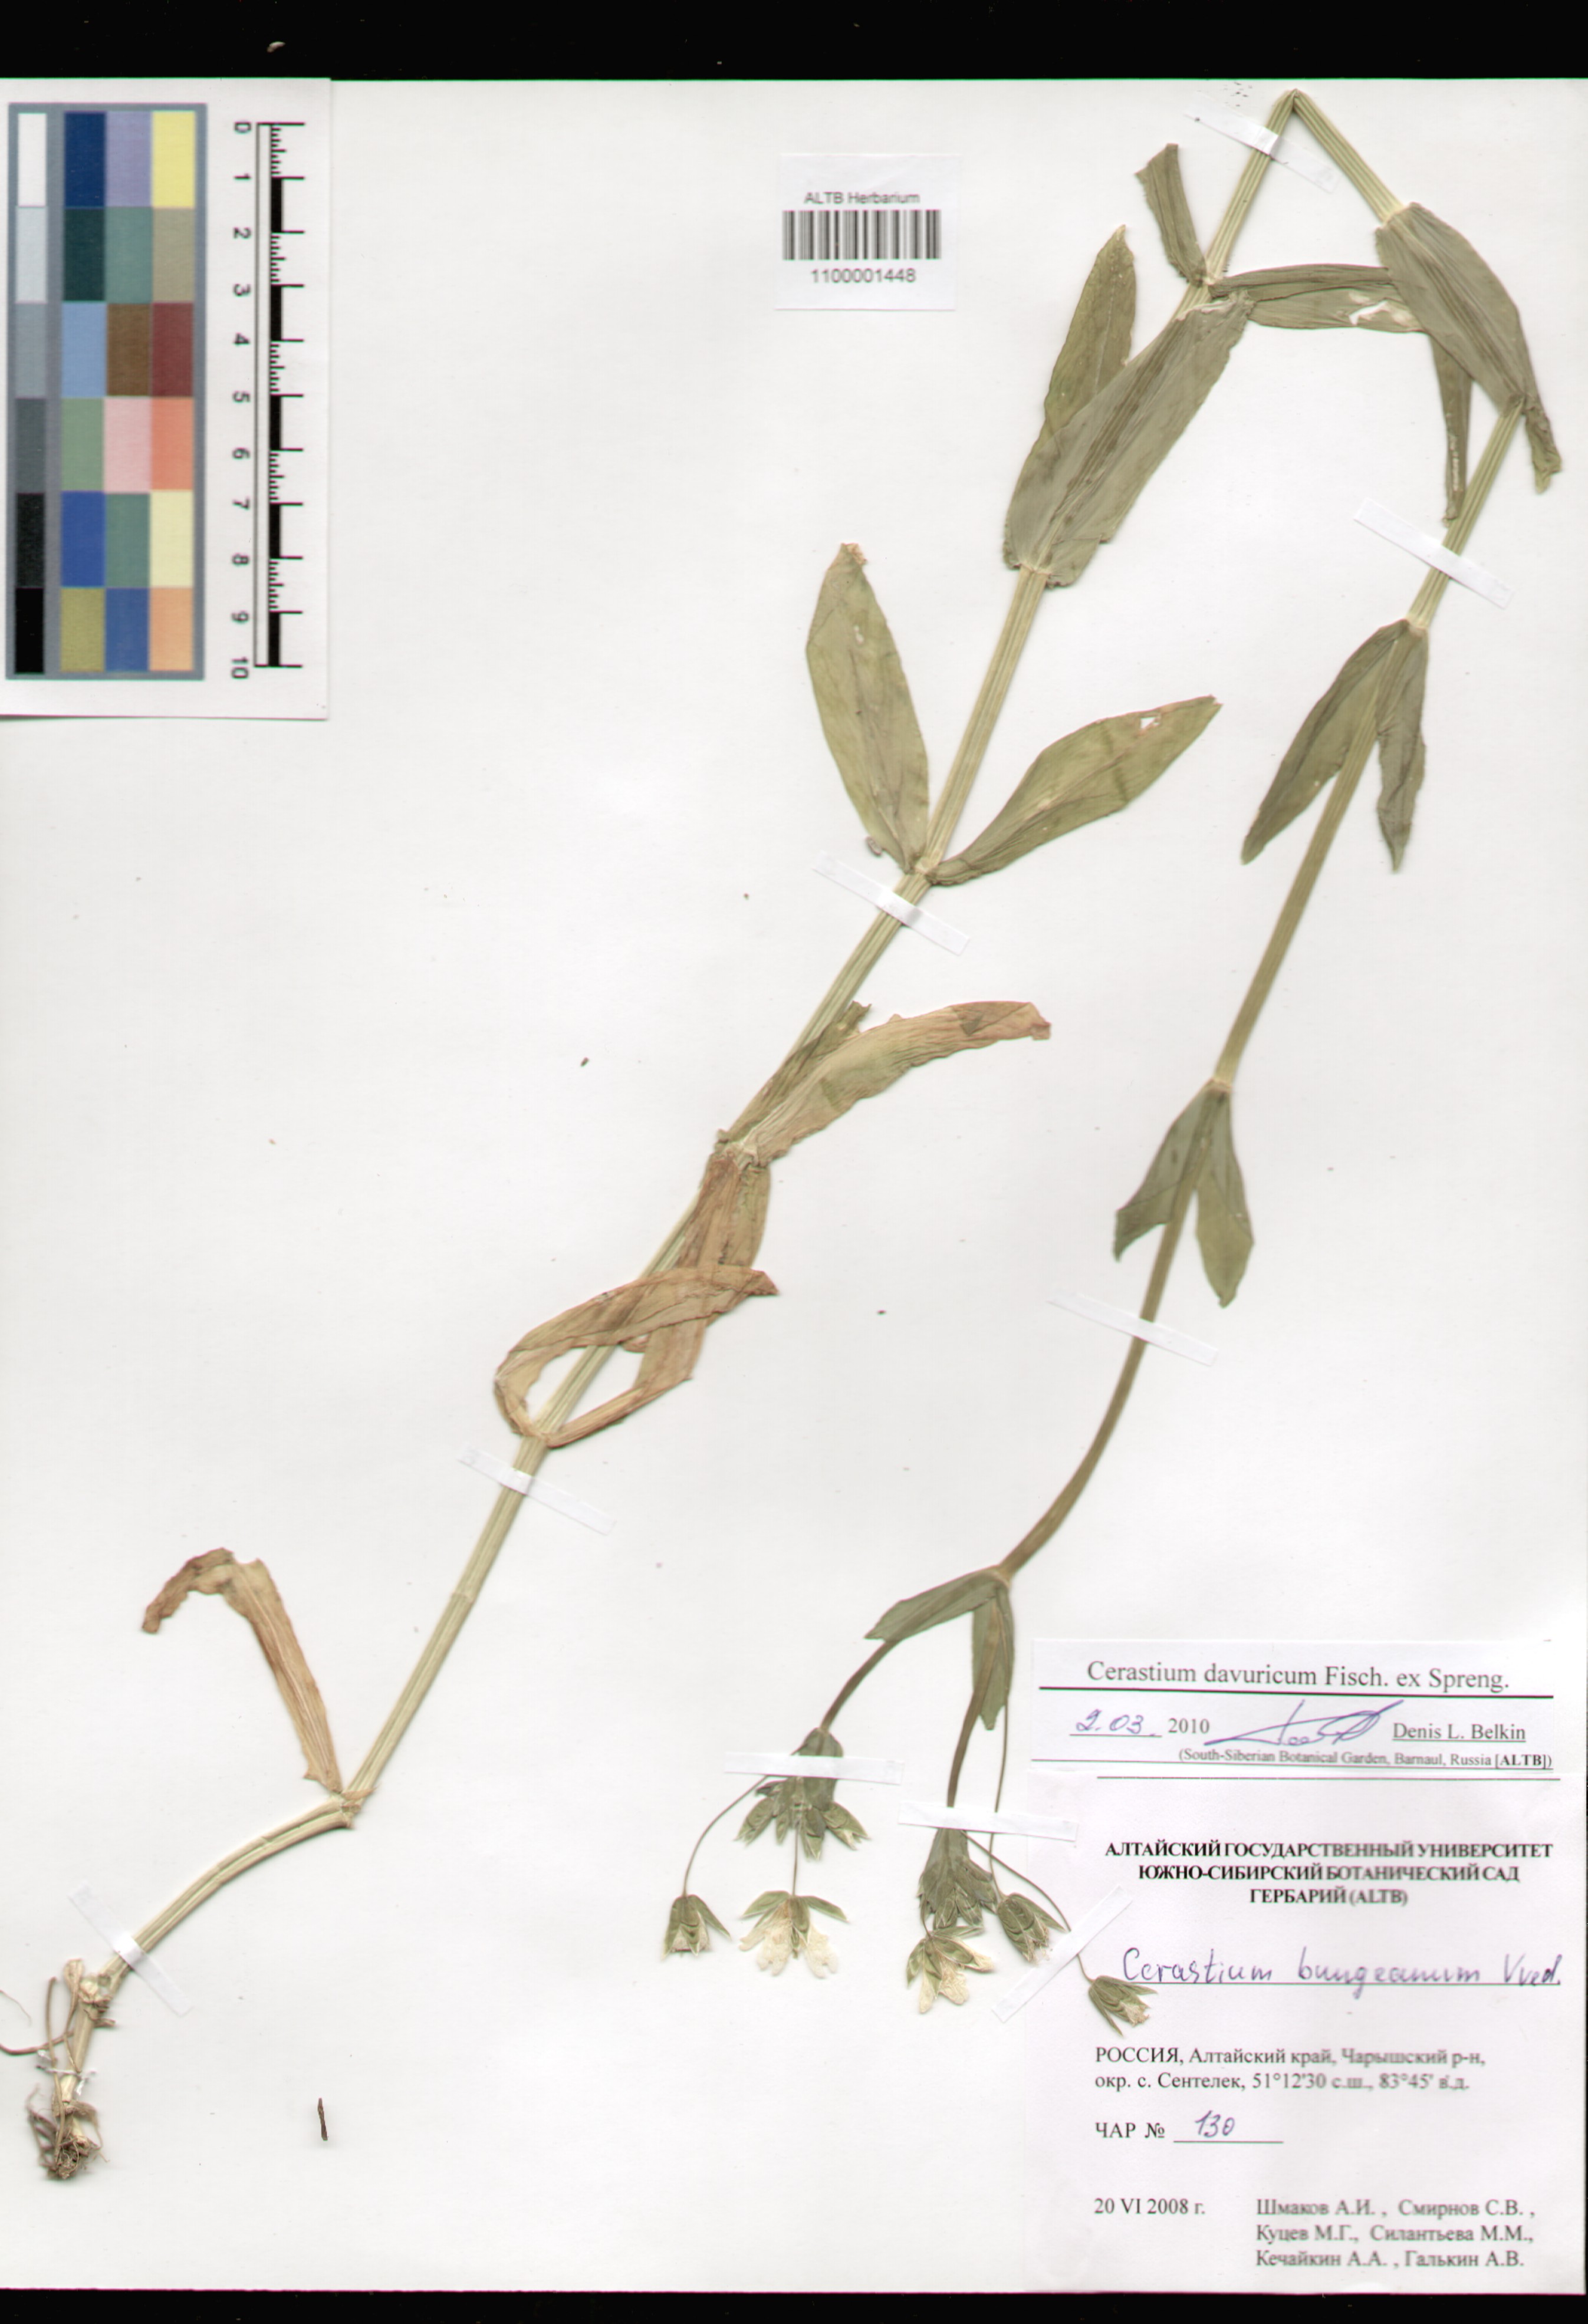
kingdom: Plantae
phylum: Tracheophyta
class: Magnoliopsida
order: Caryophyllales
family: Caryophyllaceae
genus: Dichodon
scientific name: Dichodon davuricum
